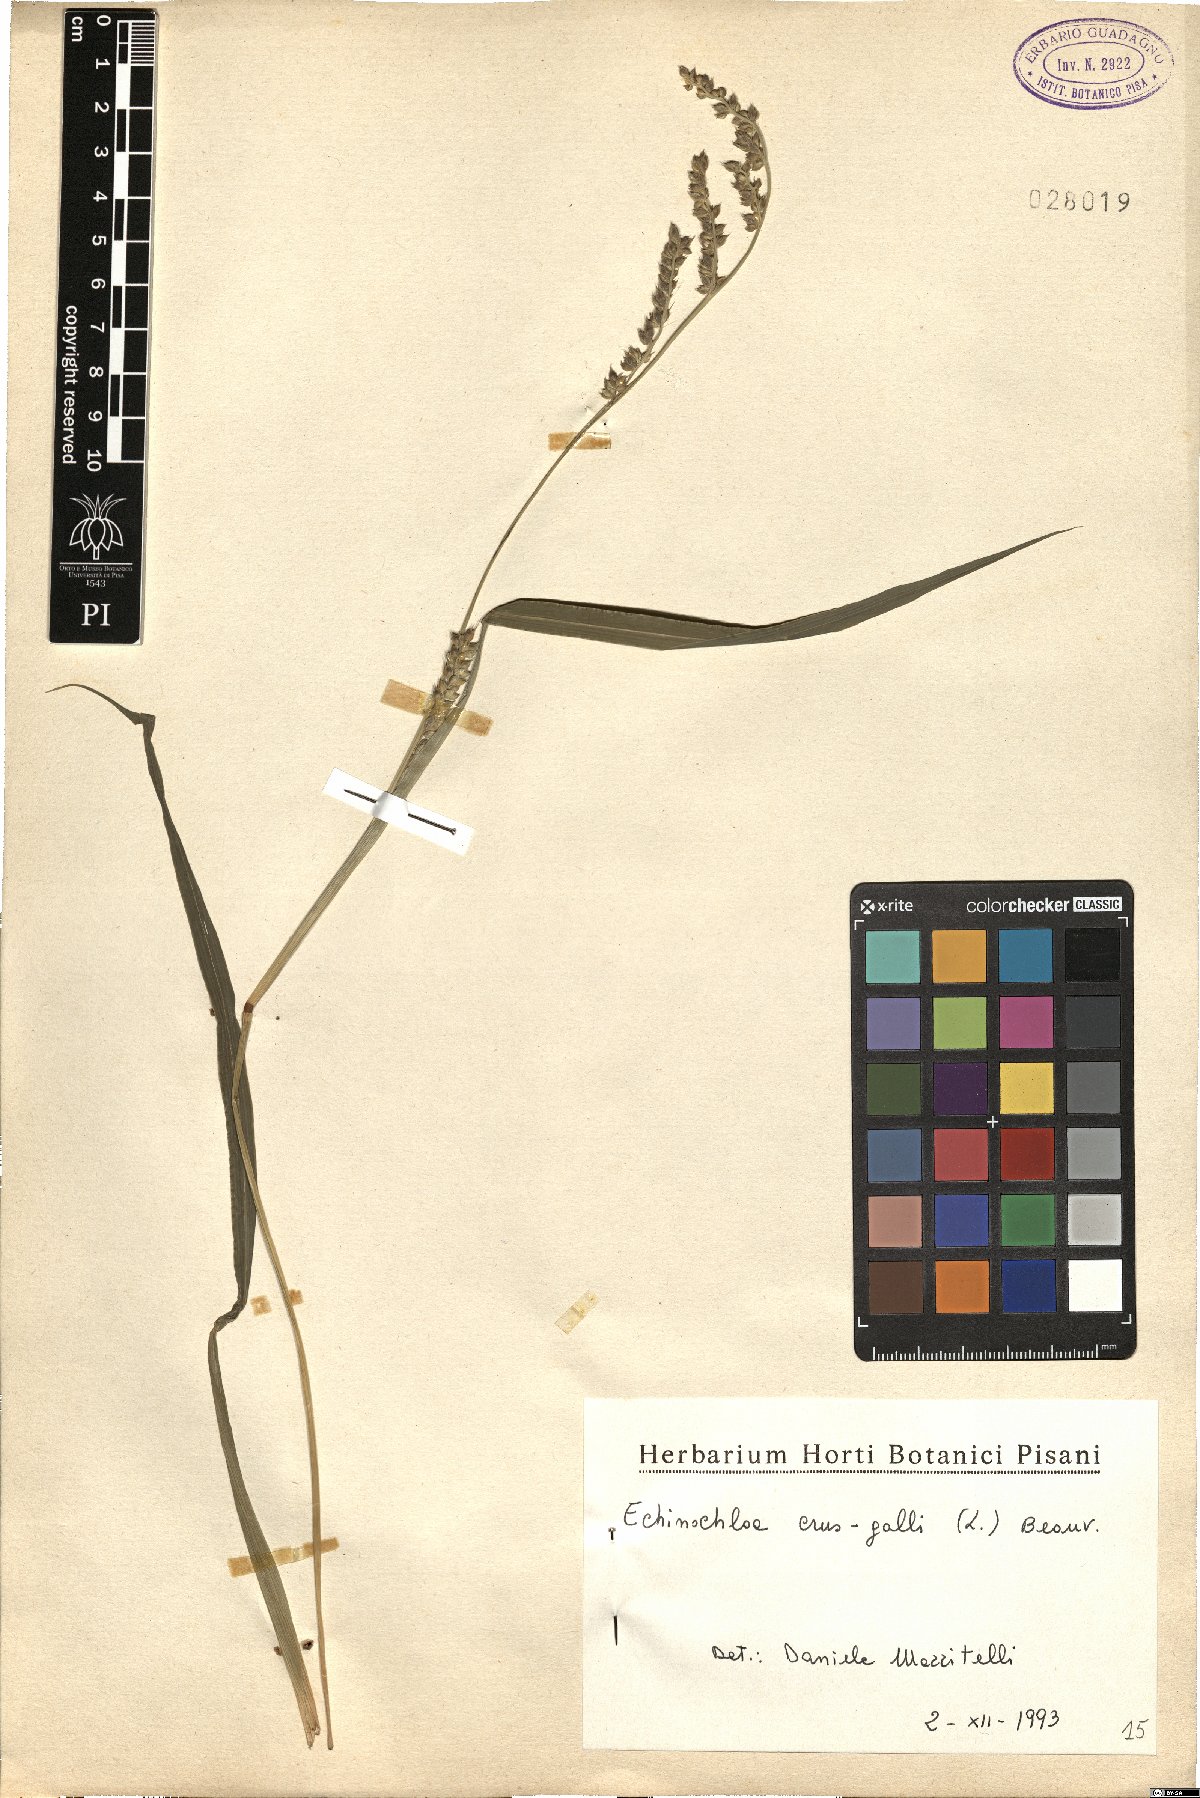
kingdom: Plantae
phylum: Tracheophyta
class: Liliopsida
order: Poales
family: Poaceae
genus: Echinochloa
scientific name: Echinochloa crus-galli
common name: Cockspur
